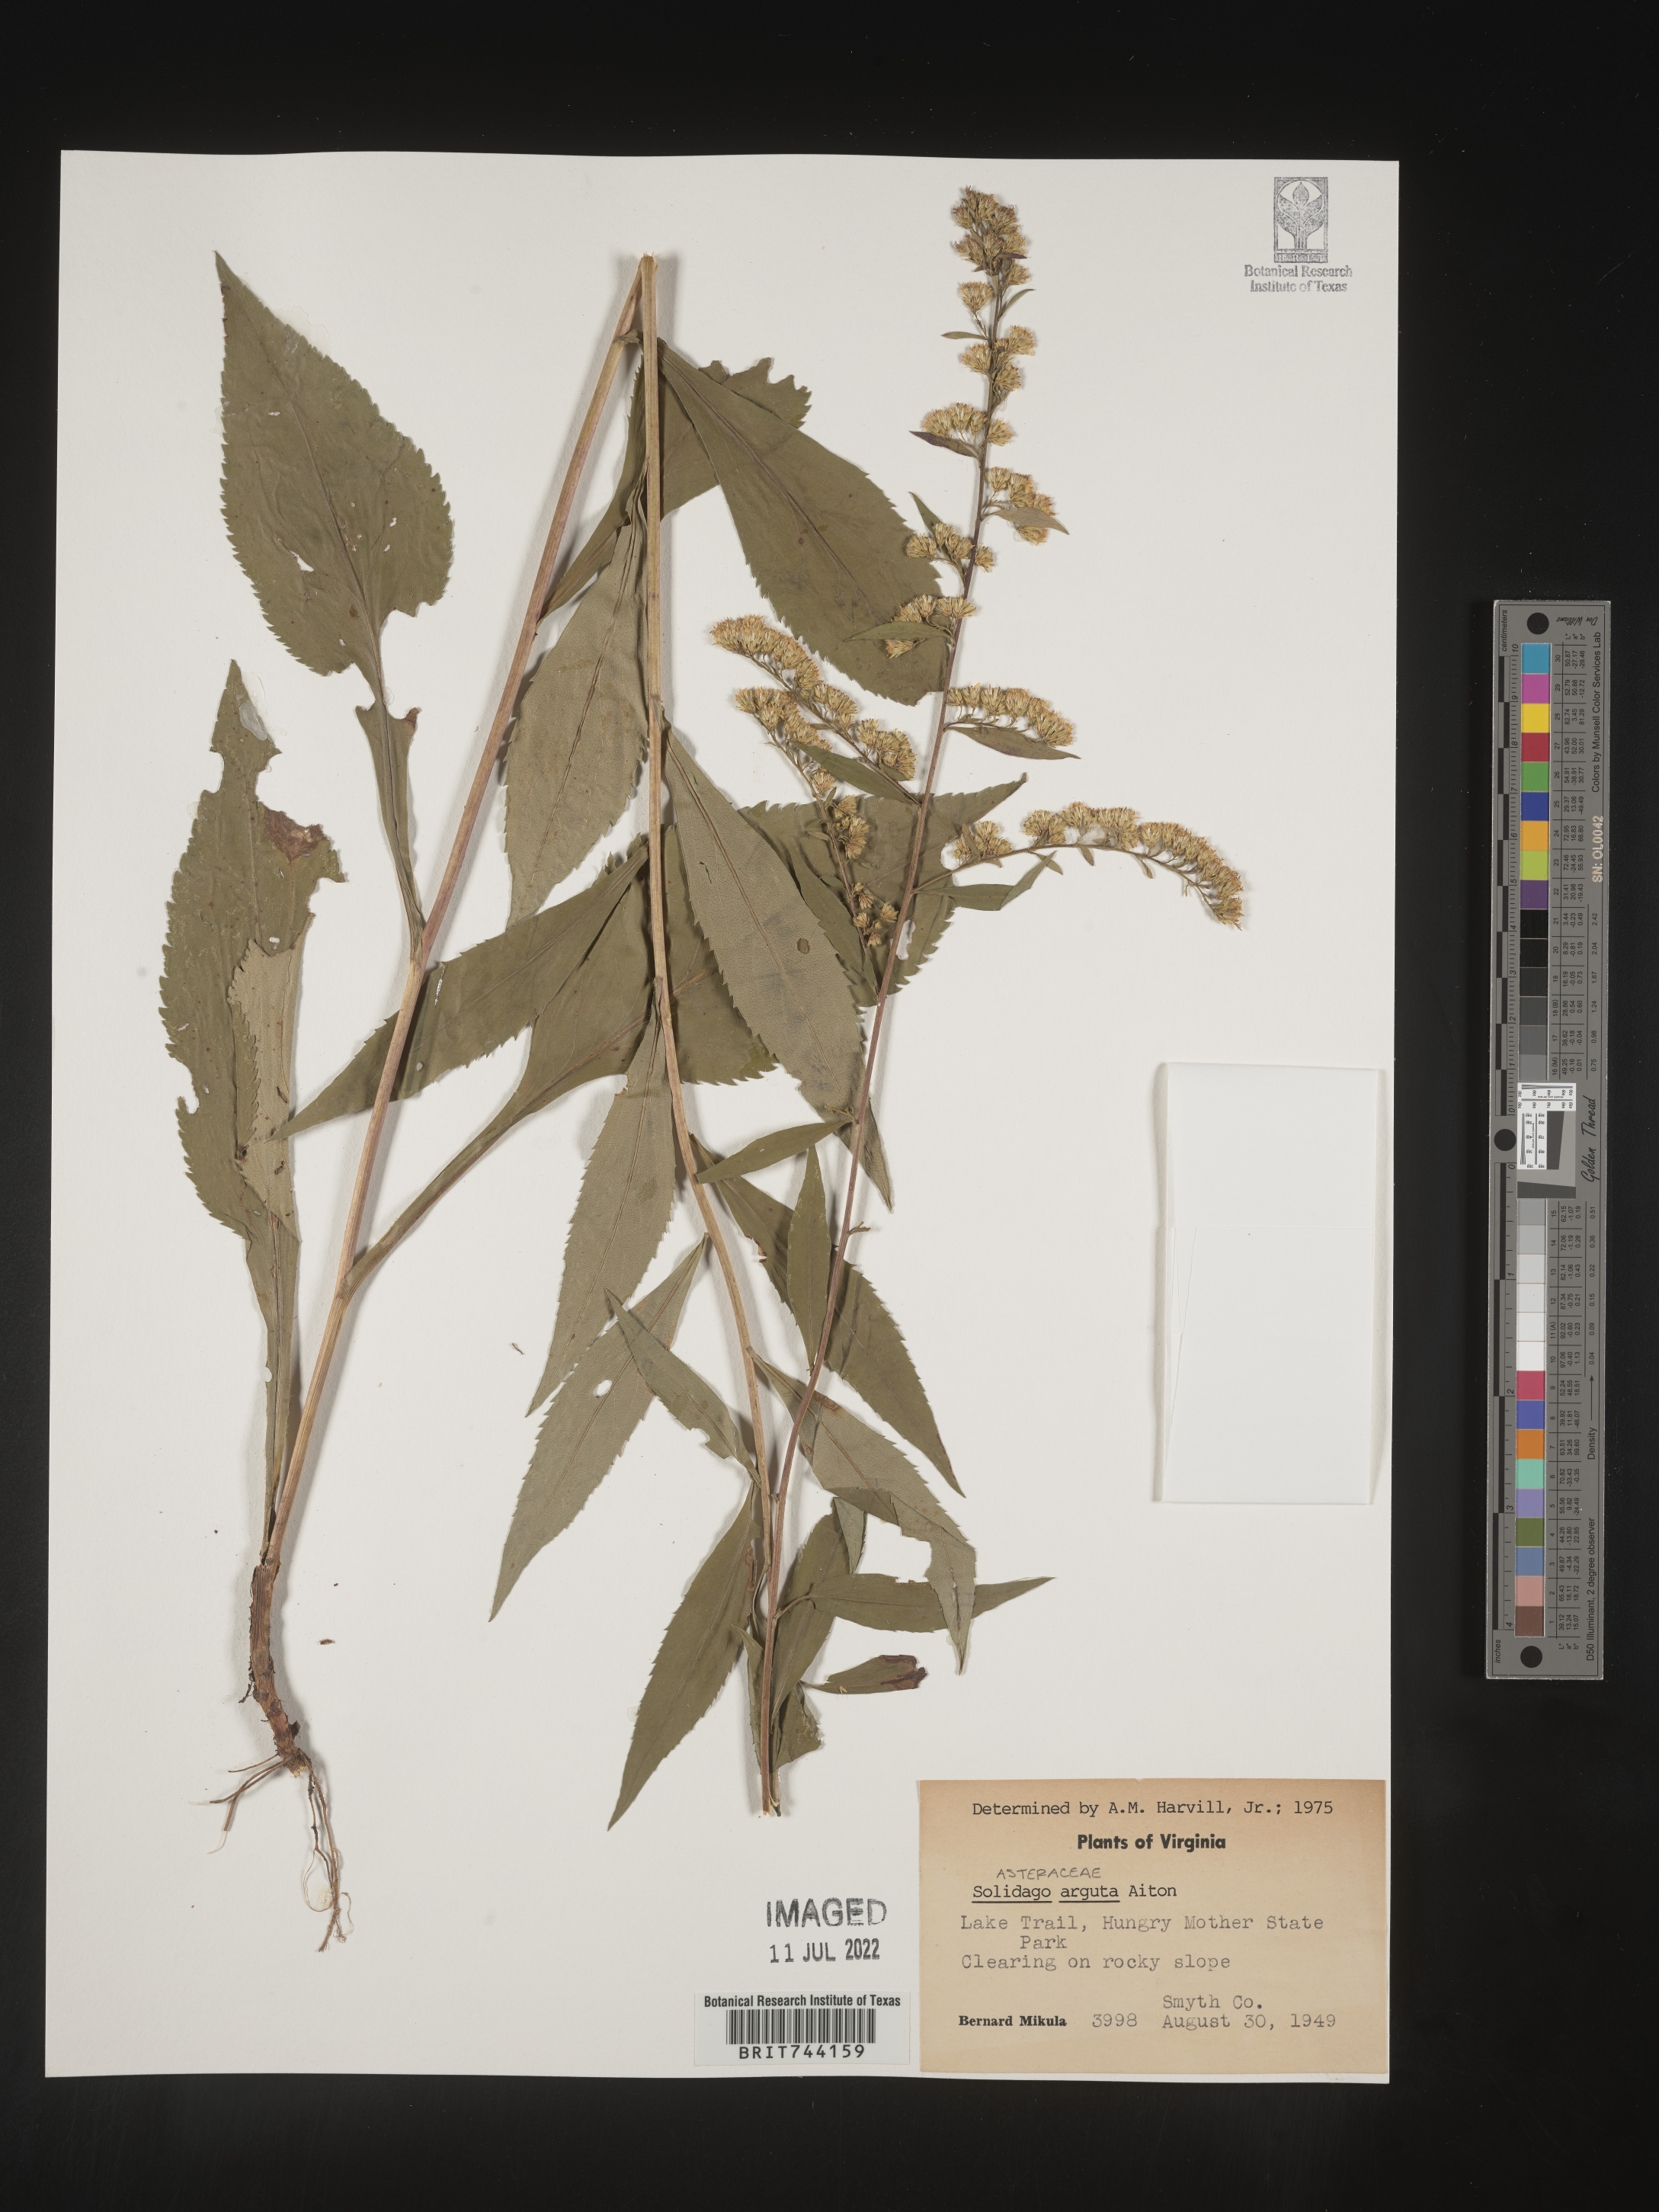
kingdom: Plantae
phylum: Tracheophyta
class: Magnoliopsida
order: Asterales
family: Asteraceae
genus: Solidago
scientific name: Solidago arguta
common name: Atlantic goldenrod
